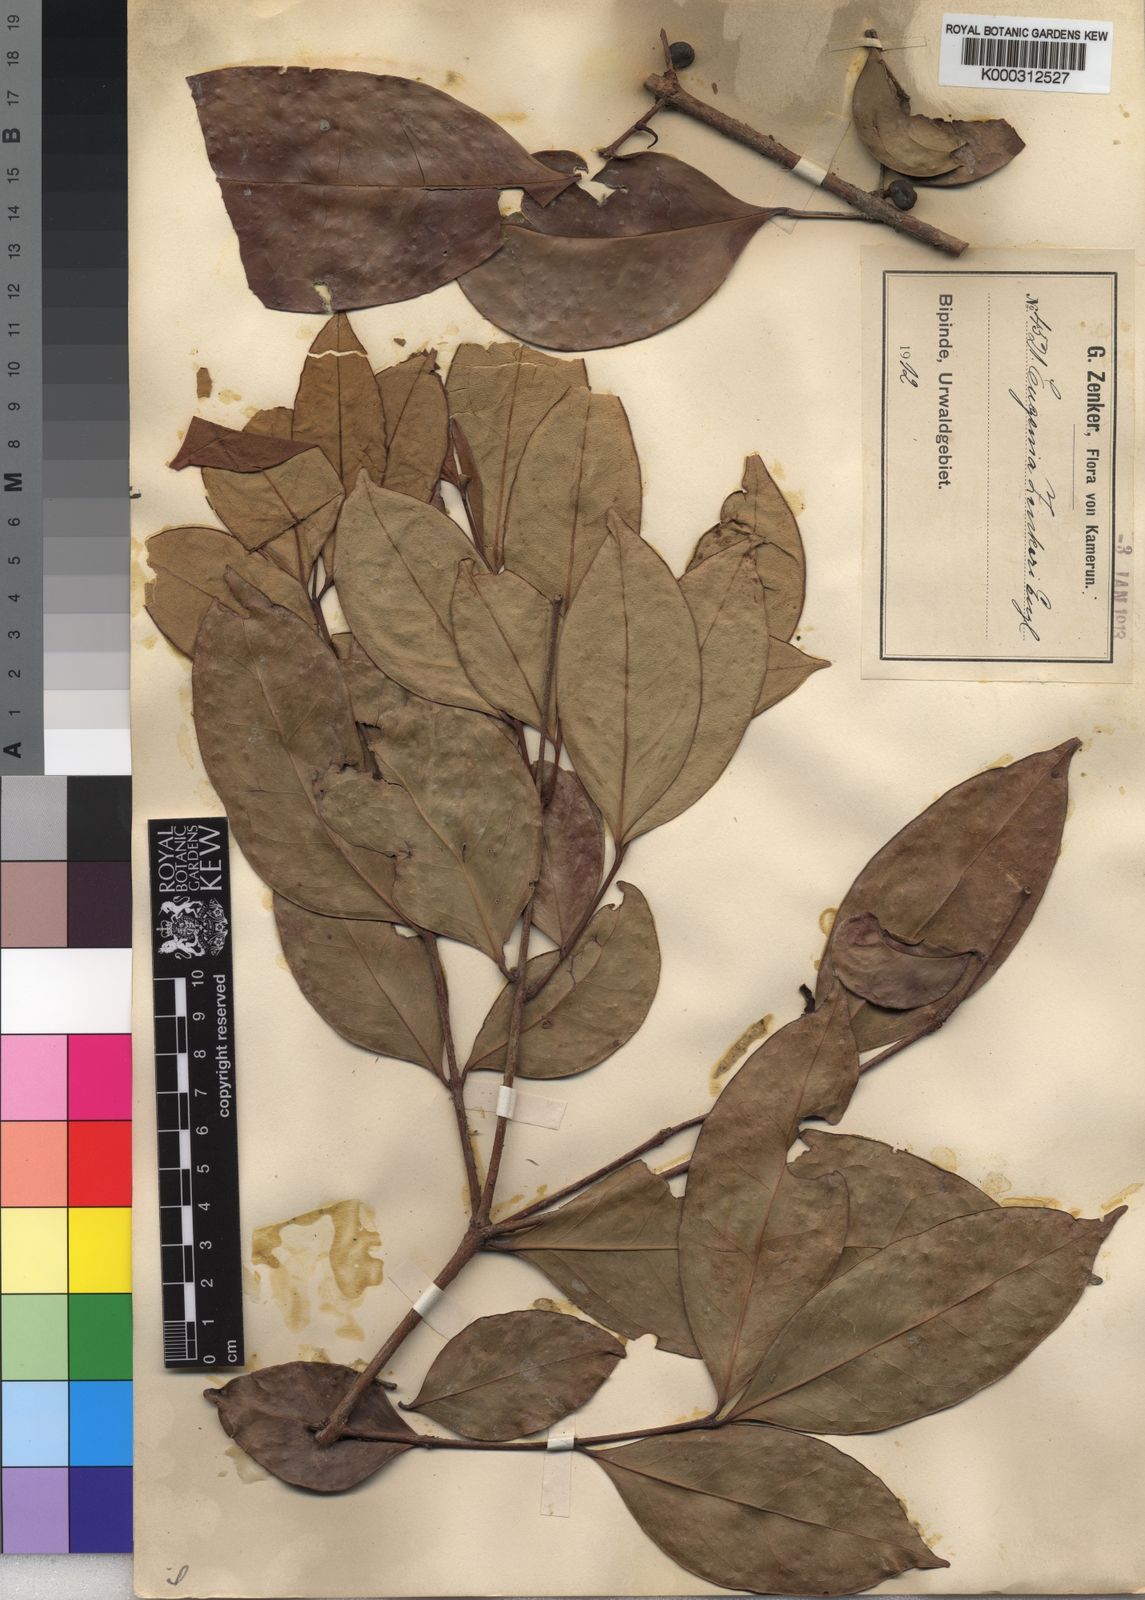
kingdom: Plantae
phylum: Tracheophyta
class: Magnoliopsida
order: Myrtales
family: Myrtaceae
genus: Eugenia
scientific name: Eugenia zenkeri
